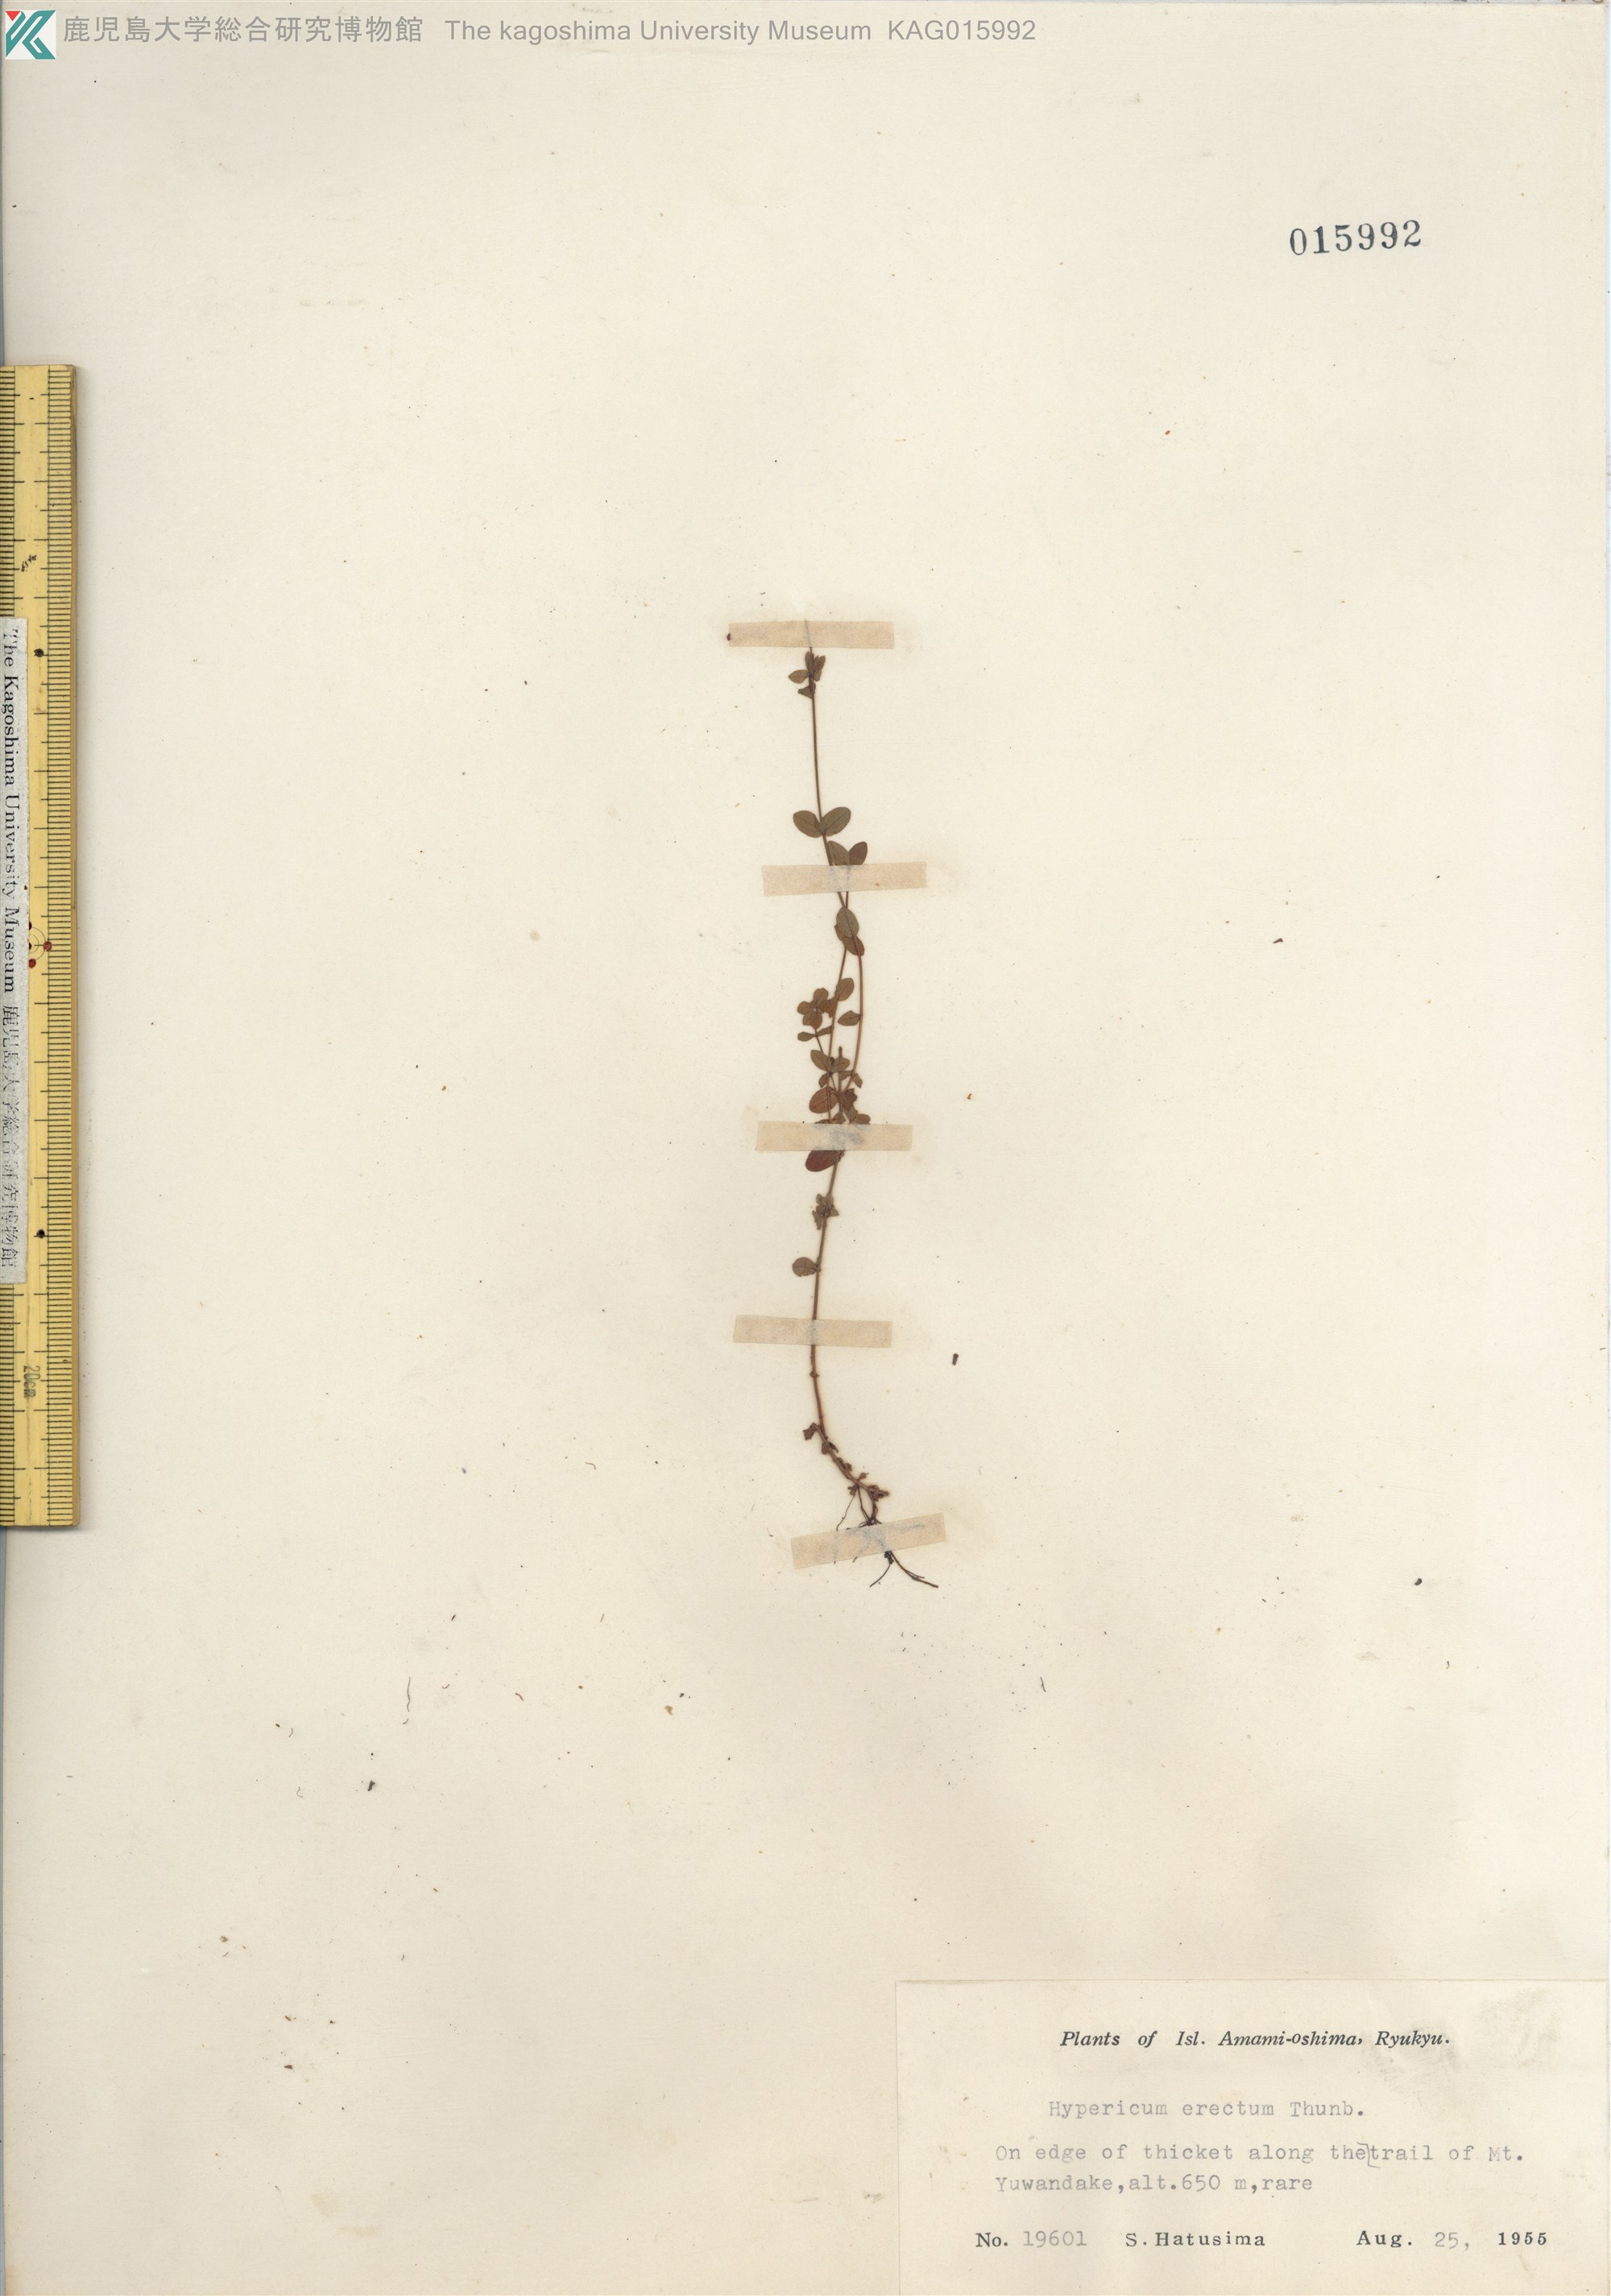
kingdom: Plantae
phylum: Tracheophyta
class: Magnoliopsida
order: Malpighiales
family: Hypericaceae
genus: Hypericum
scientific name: Hypericum japonicum
